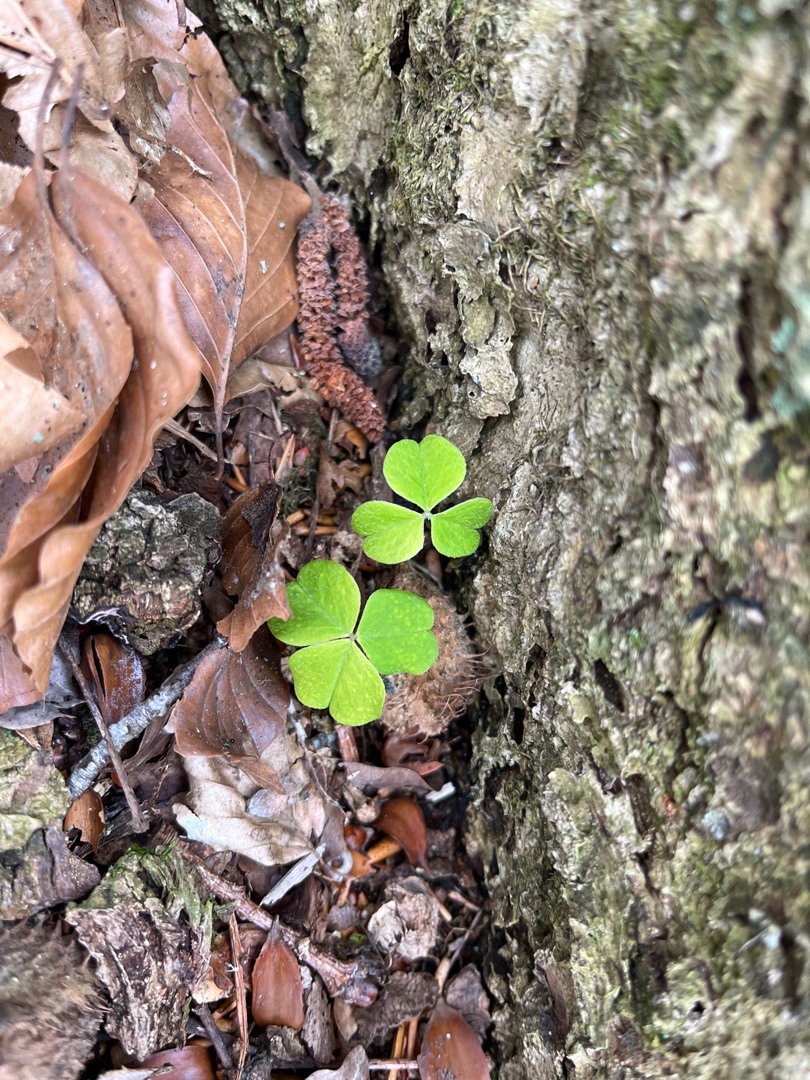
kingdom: Plantae
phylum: Tracheophyta
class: Magnoliopsida
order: Oxalidales
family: Oxalidaceae
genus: Oxalis
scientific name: Oxalis acetosella
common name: Skovsyre
